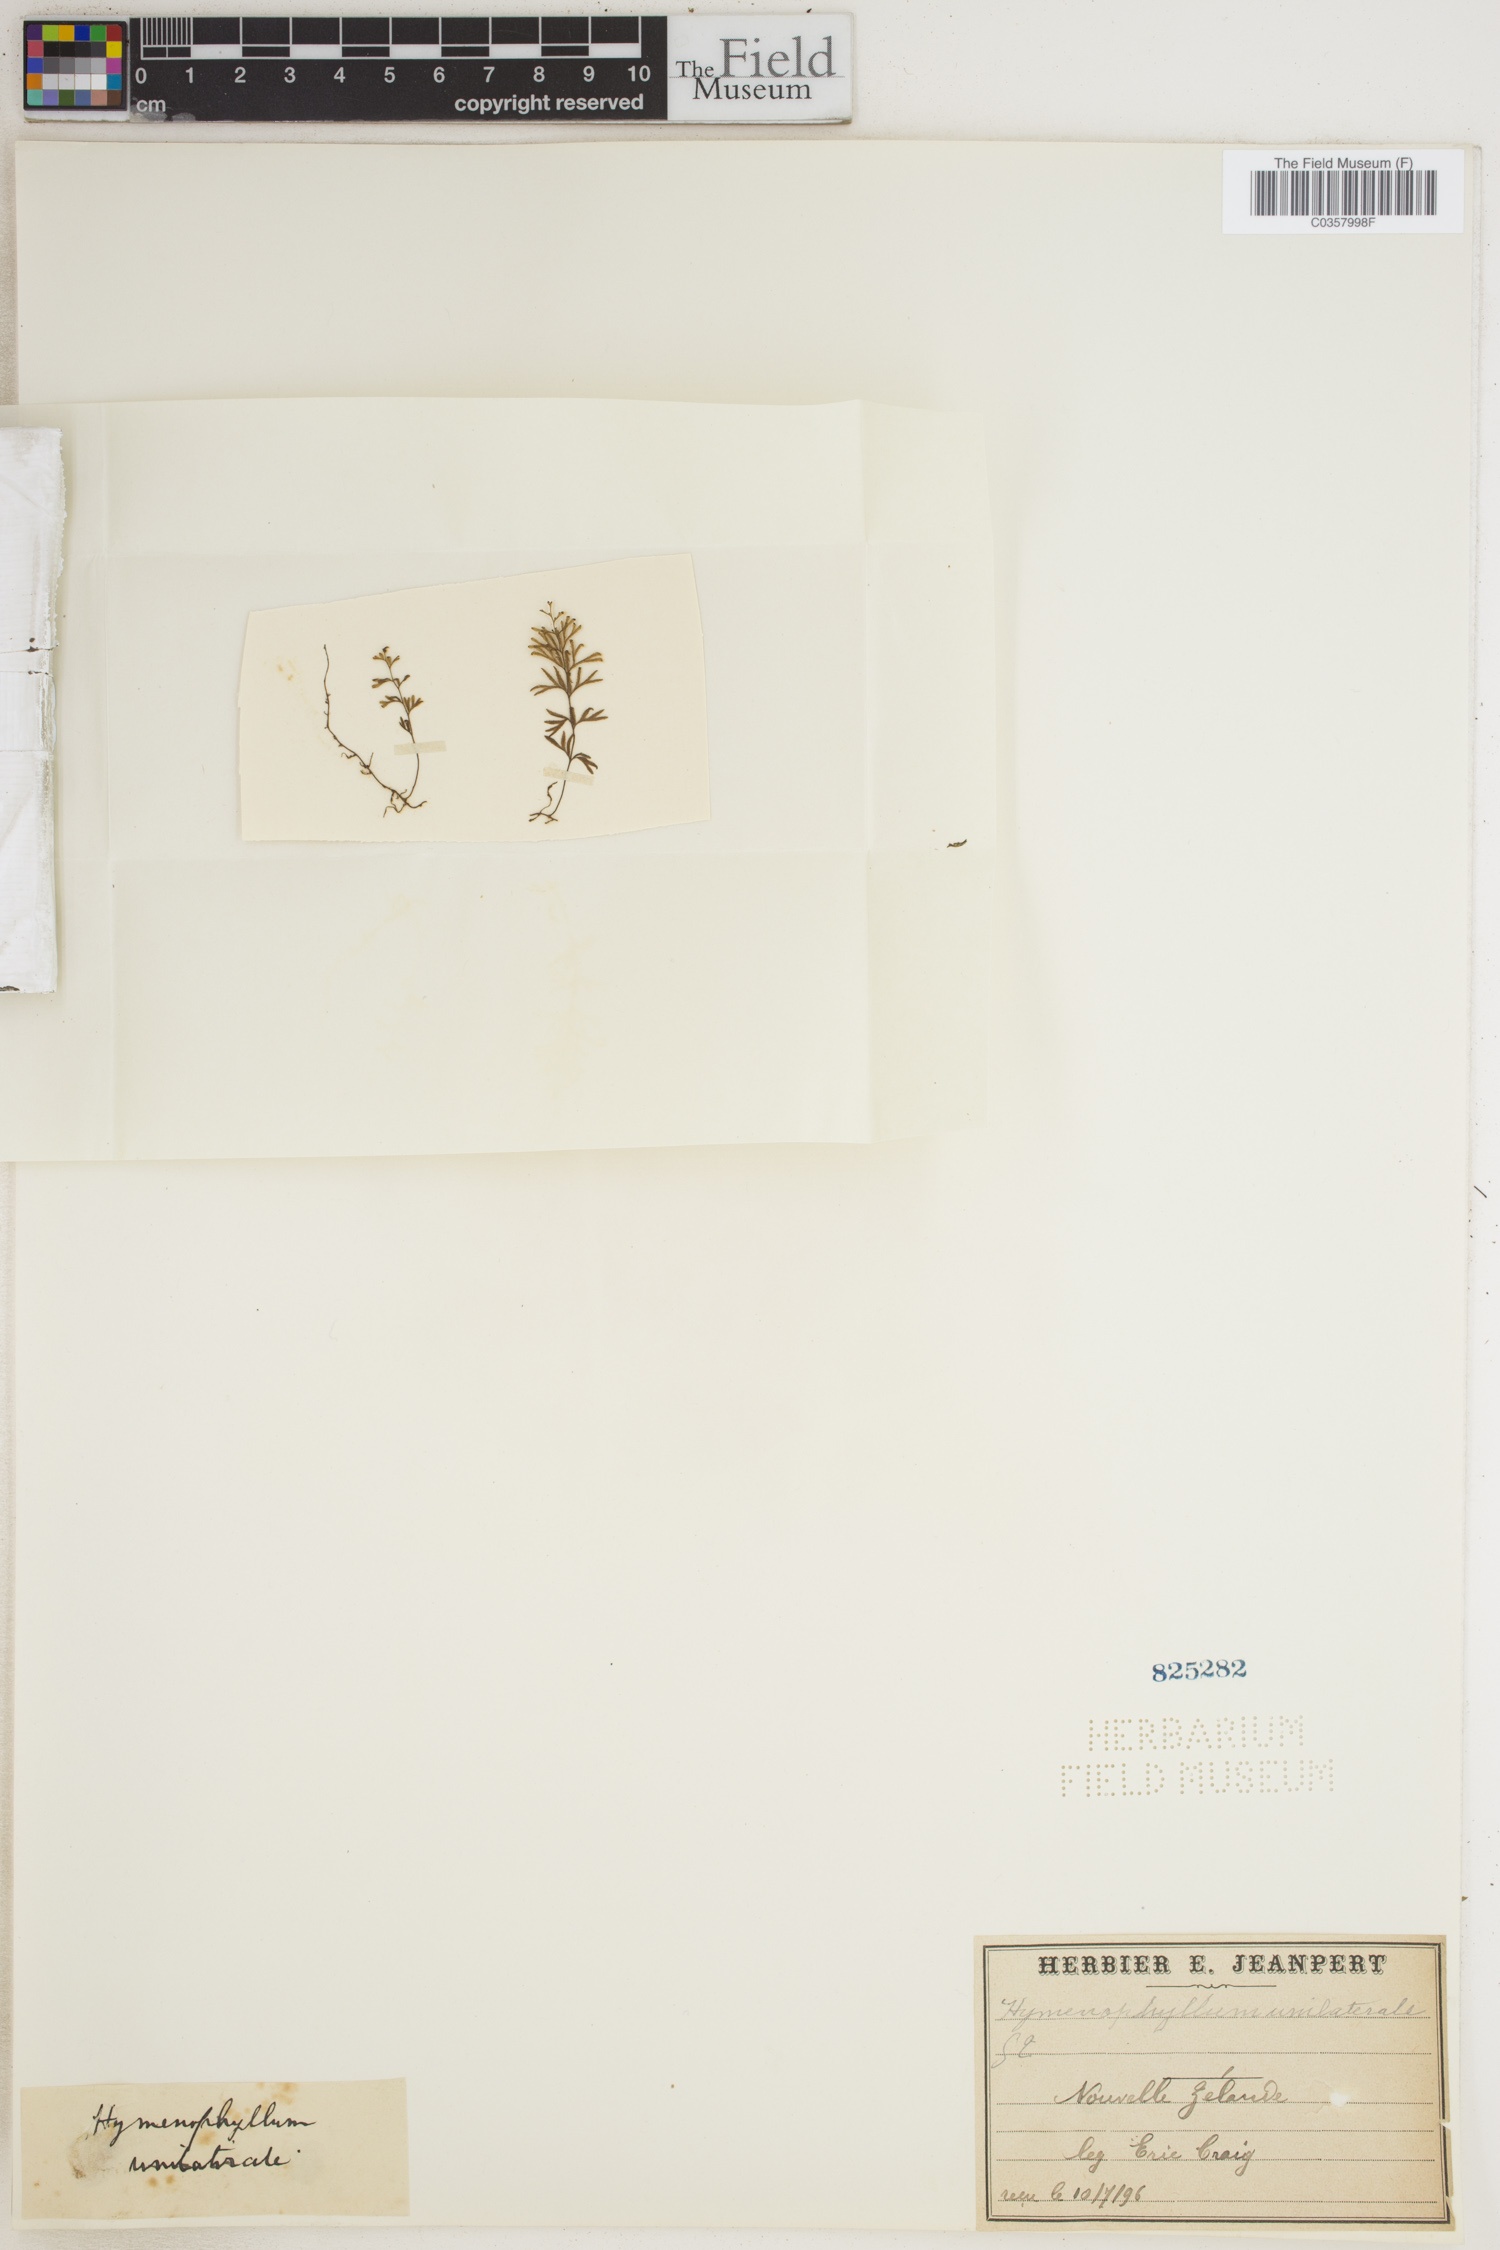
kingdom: Plantae
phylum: Tracheophyta
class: Polypodiopsida
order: Hymenophyllales
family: Hymenophyllaceae
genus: Hymenophyllum
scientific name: Hymenophyllum peltatum
